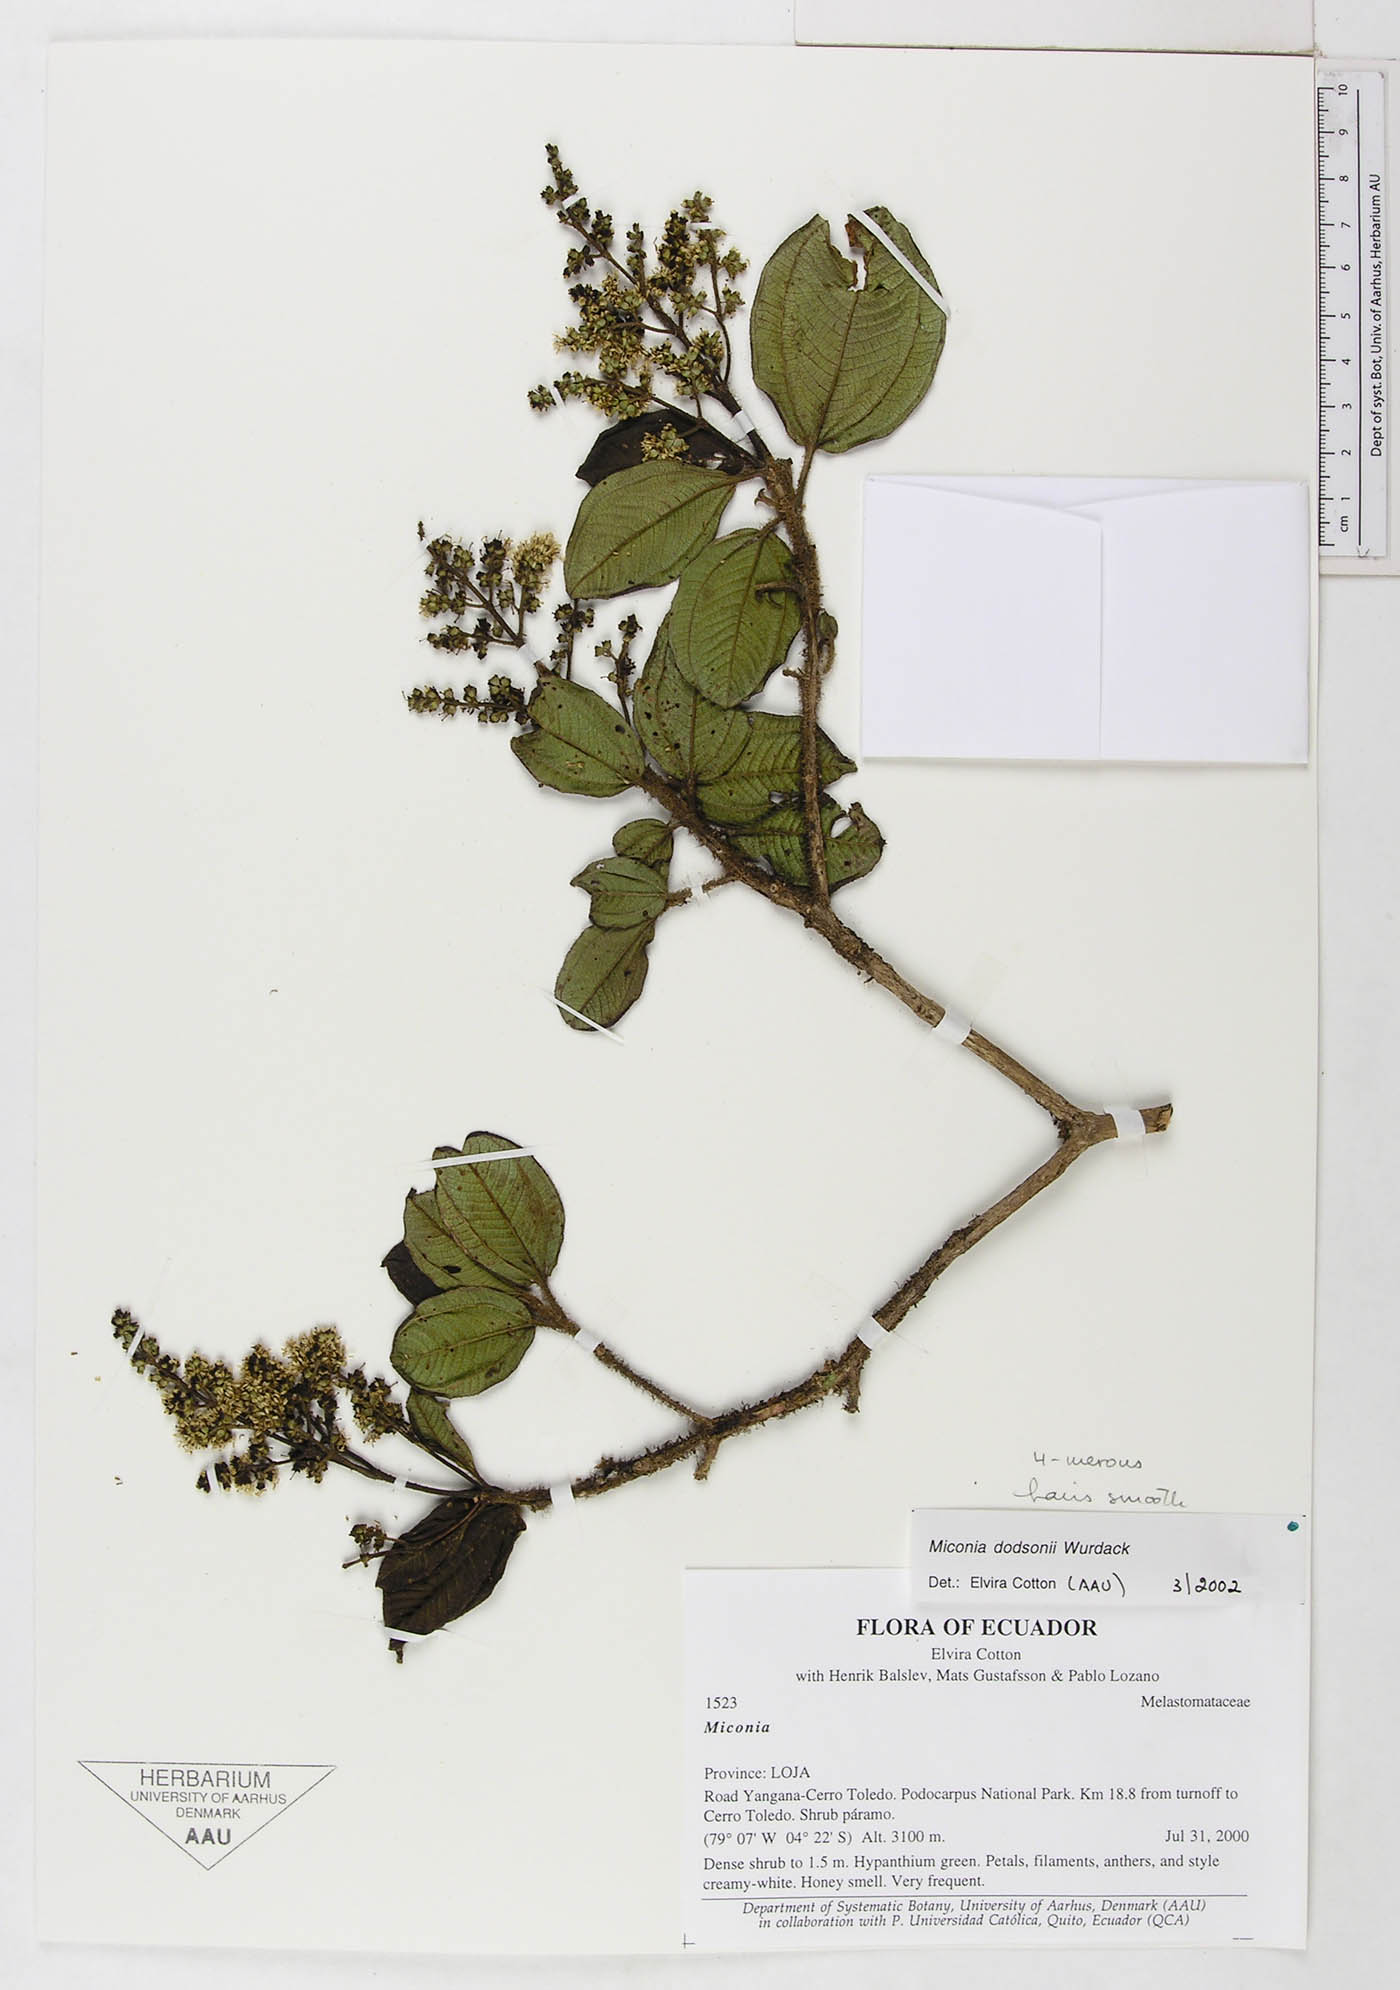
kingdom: Plantae
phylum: Tracheophyta
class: Magnoliopsida
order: Myrtales
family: Melastomataceae
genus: Miconia
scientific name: Miconia dodsonii
